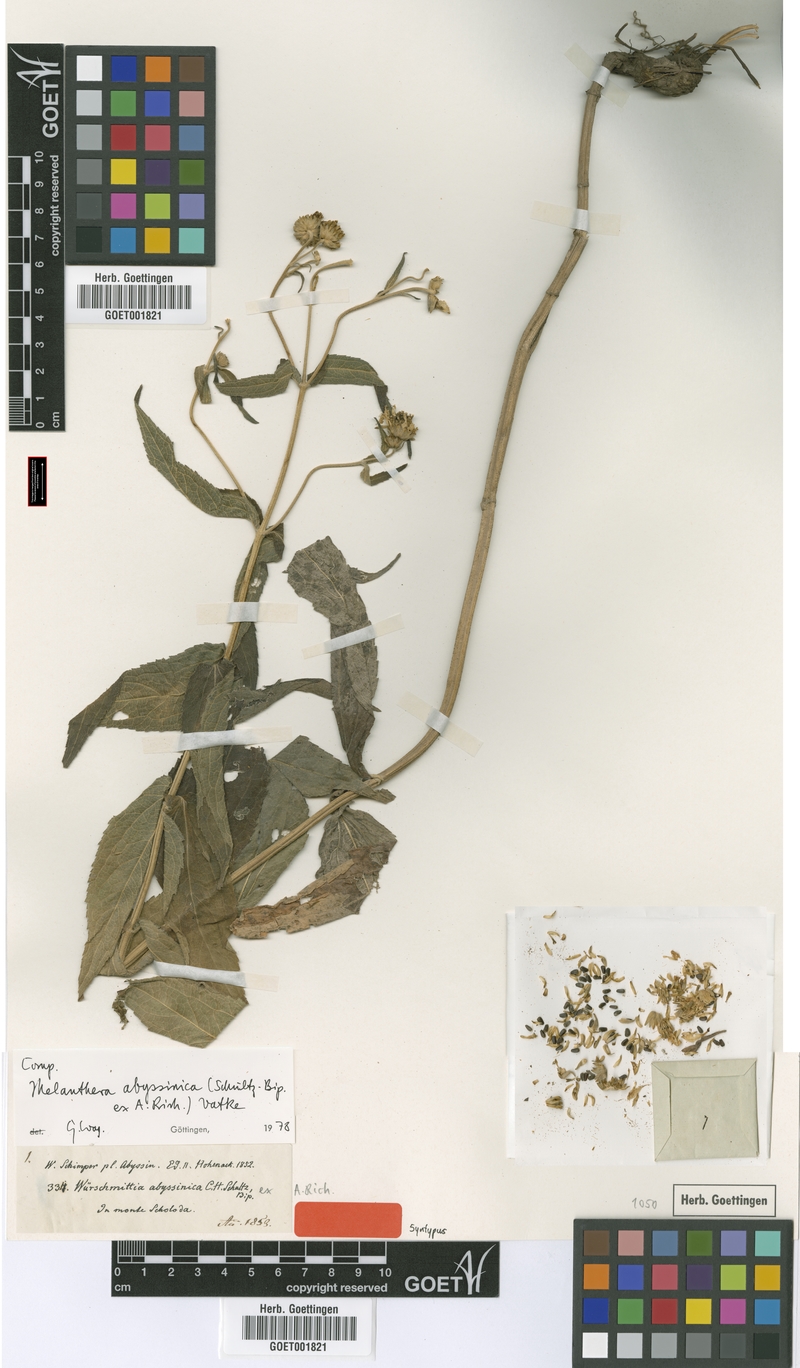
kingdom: Plantae
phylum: Tracheophyta
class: Magnoliopsida
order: Asterales
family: Asteraceae
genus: Lipotriche
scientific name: Lipotriche abyssinica
